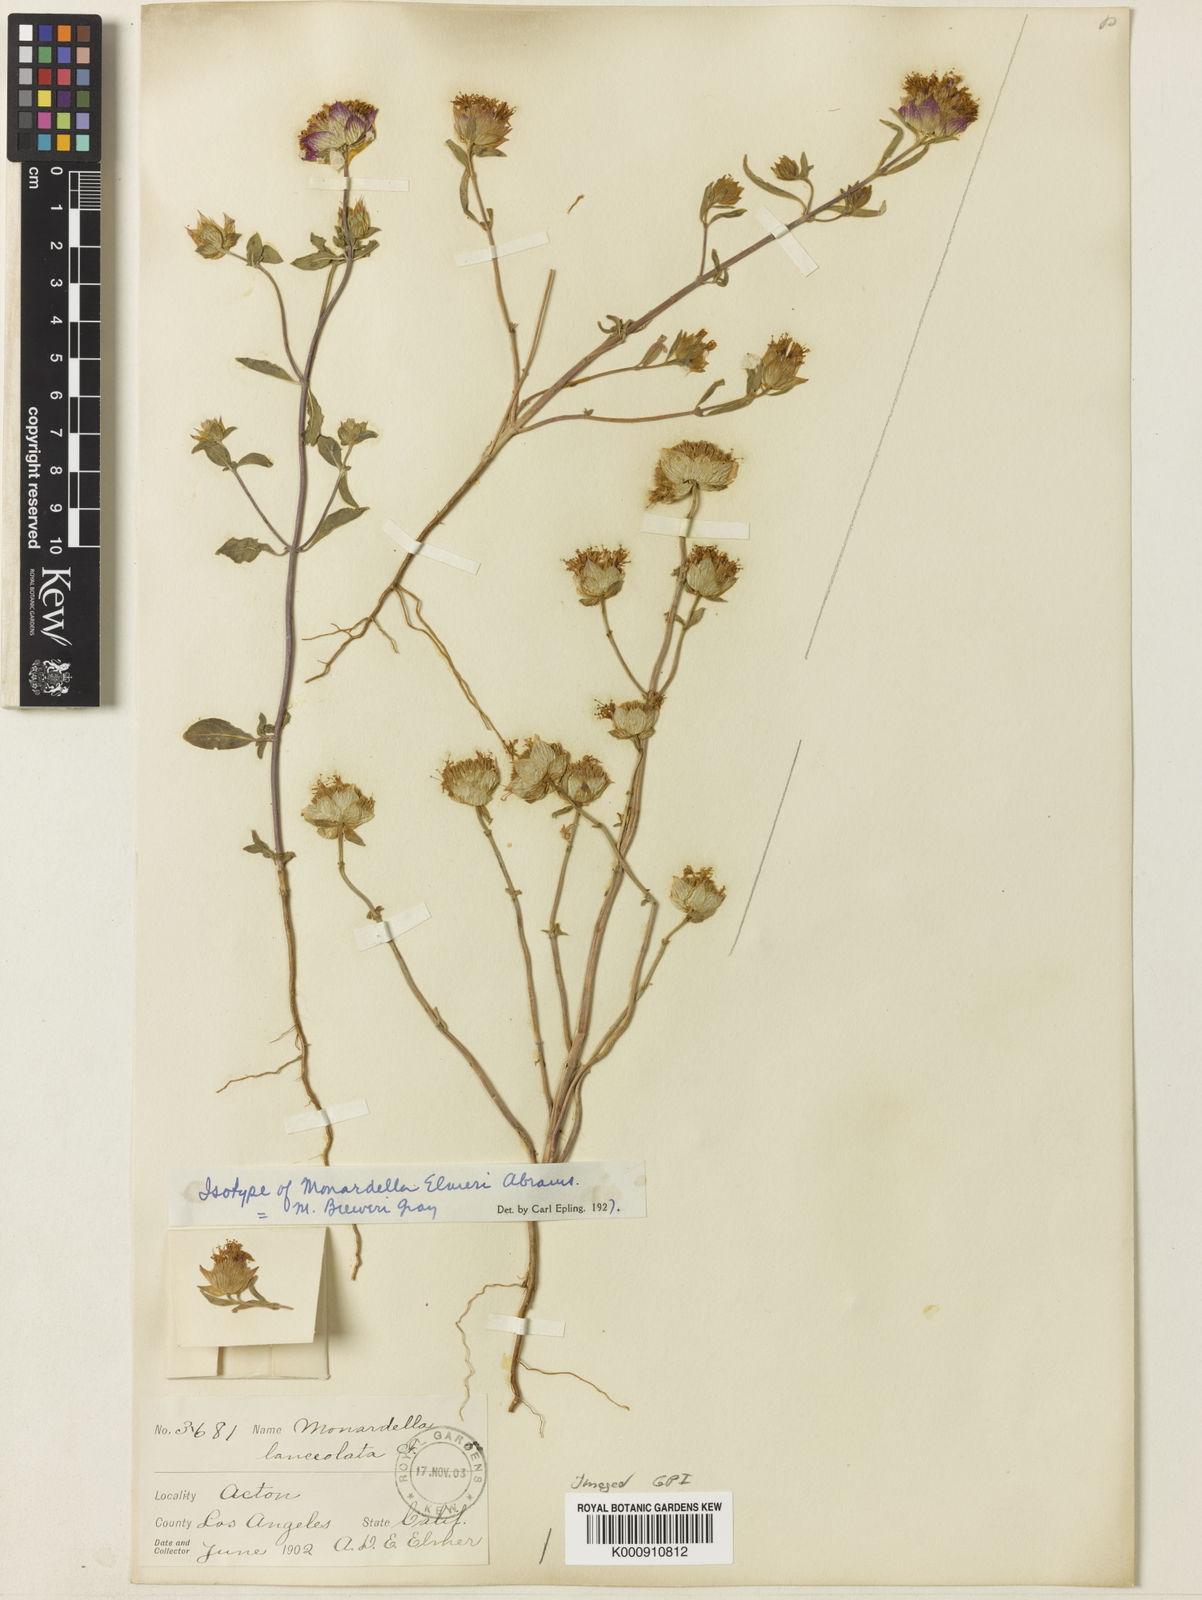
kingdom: Plantae
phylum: Tracheophyta
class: Magnoliopsida
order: Lamiales
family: Lamiaceae
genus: Monardella
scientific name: Monardella breweri
